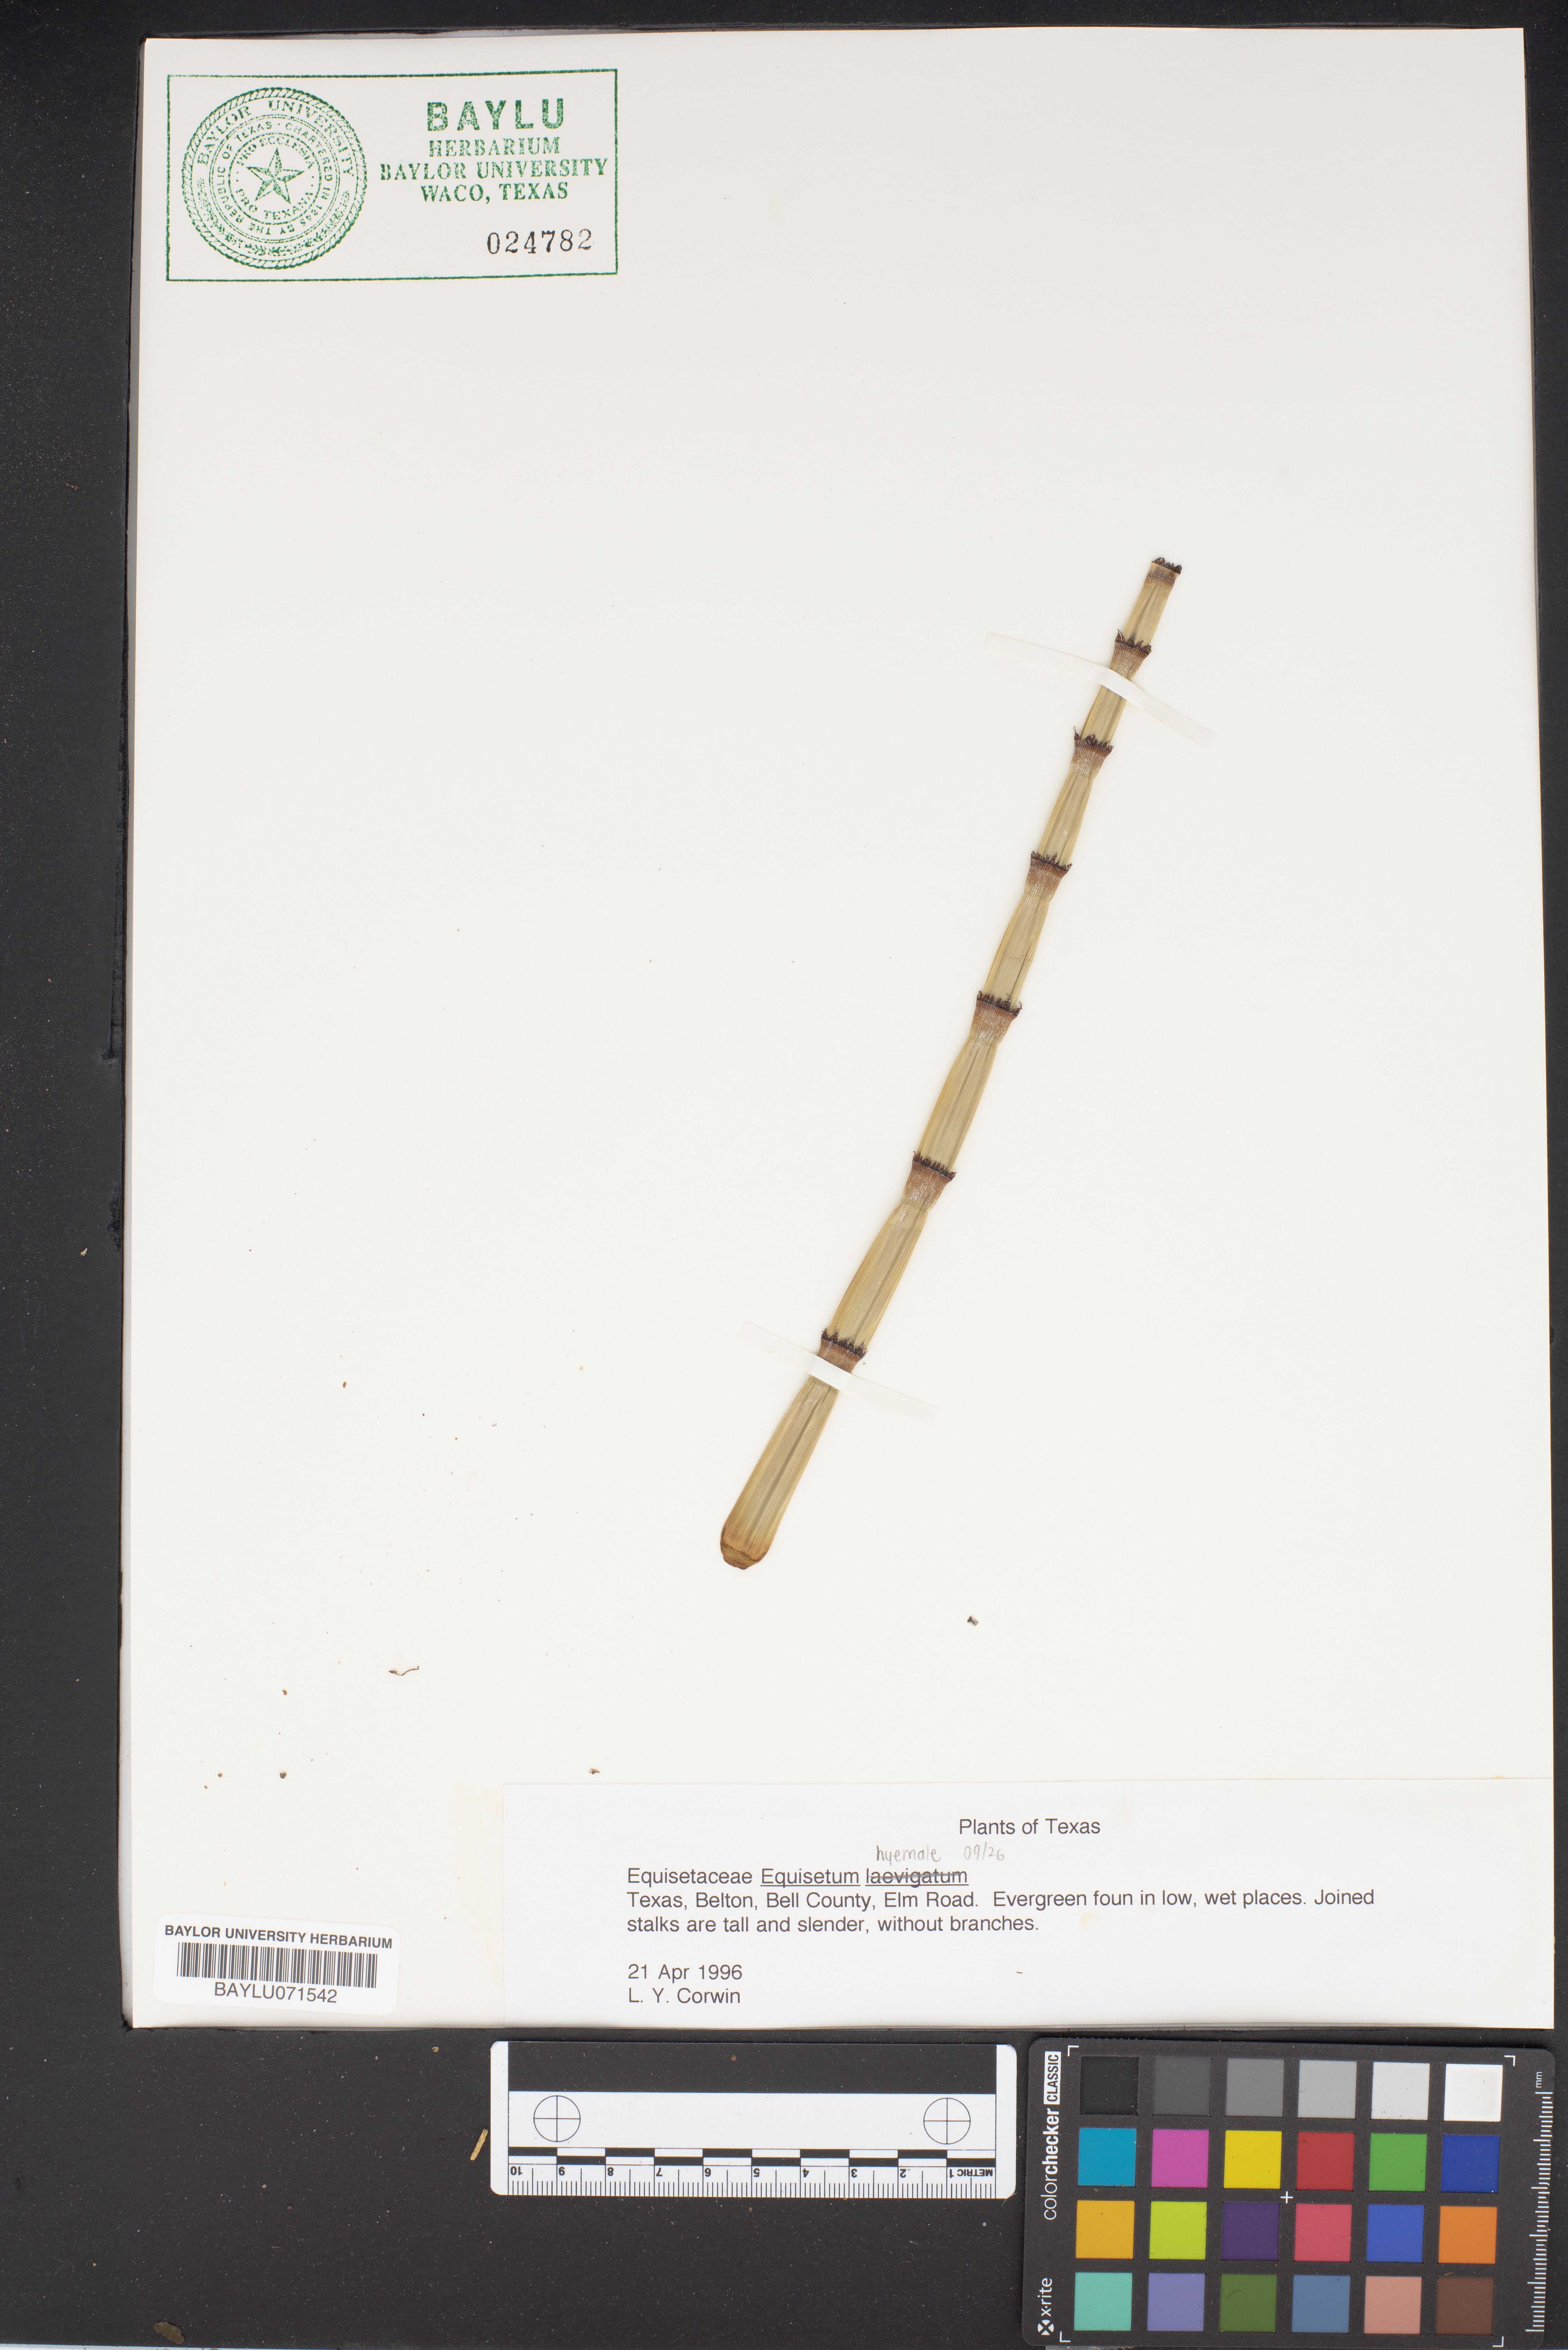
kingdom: Plantae
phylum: Tracheophyta
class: Polypodiopsida
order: Equisetales
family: Equisetaceae
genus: Equisetum
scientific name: Equisetum hyemale
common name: Rough horsetail
